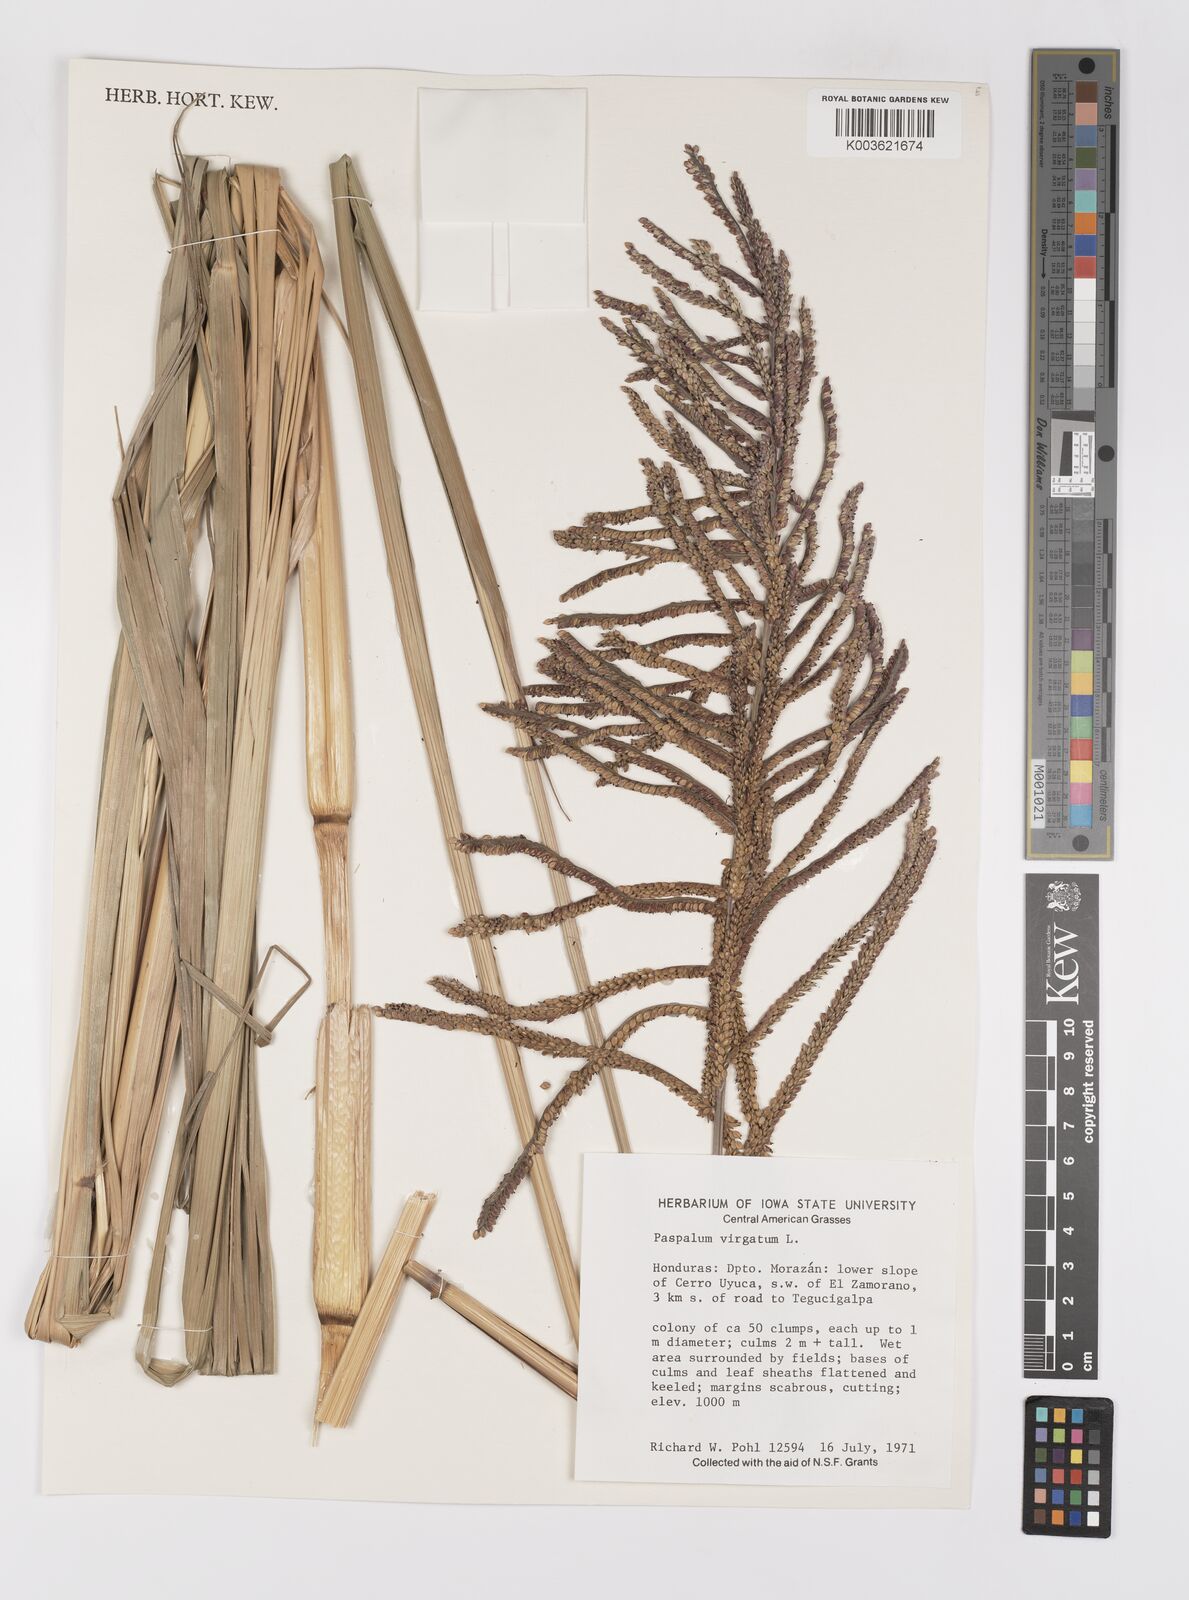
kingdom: Plantae
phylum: Tracheophyta
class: Liliopsida
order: Poales
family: Poaceae
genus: Paspalum
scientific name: Paspalum virgatum
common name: Talquezal
